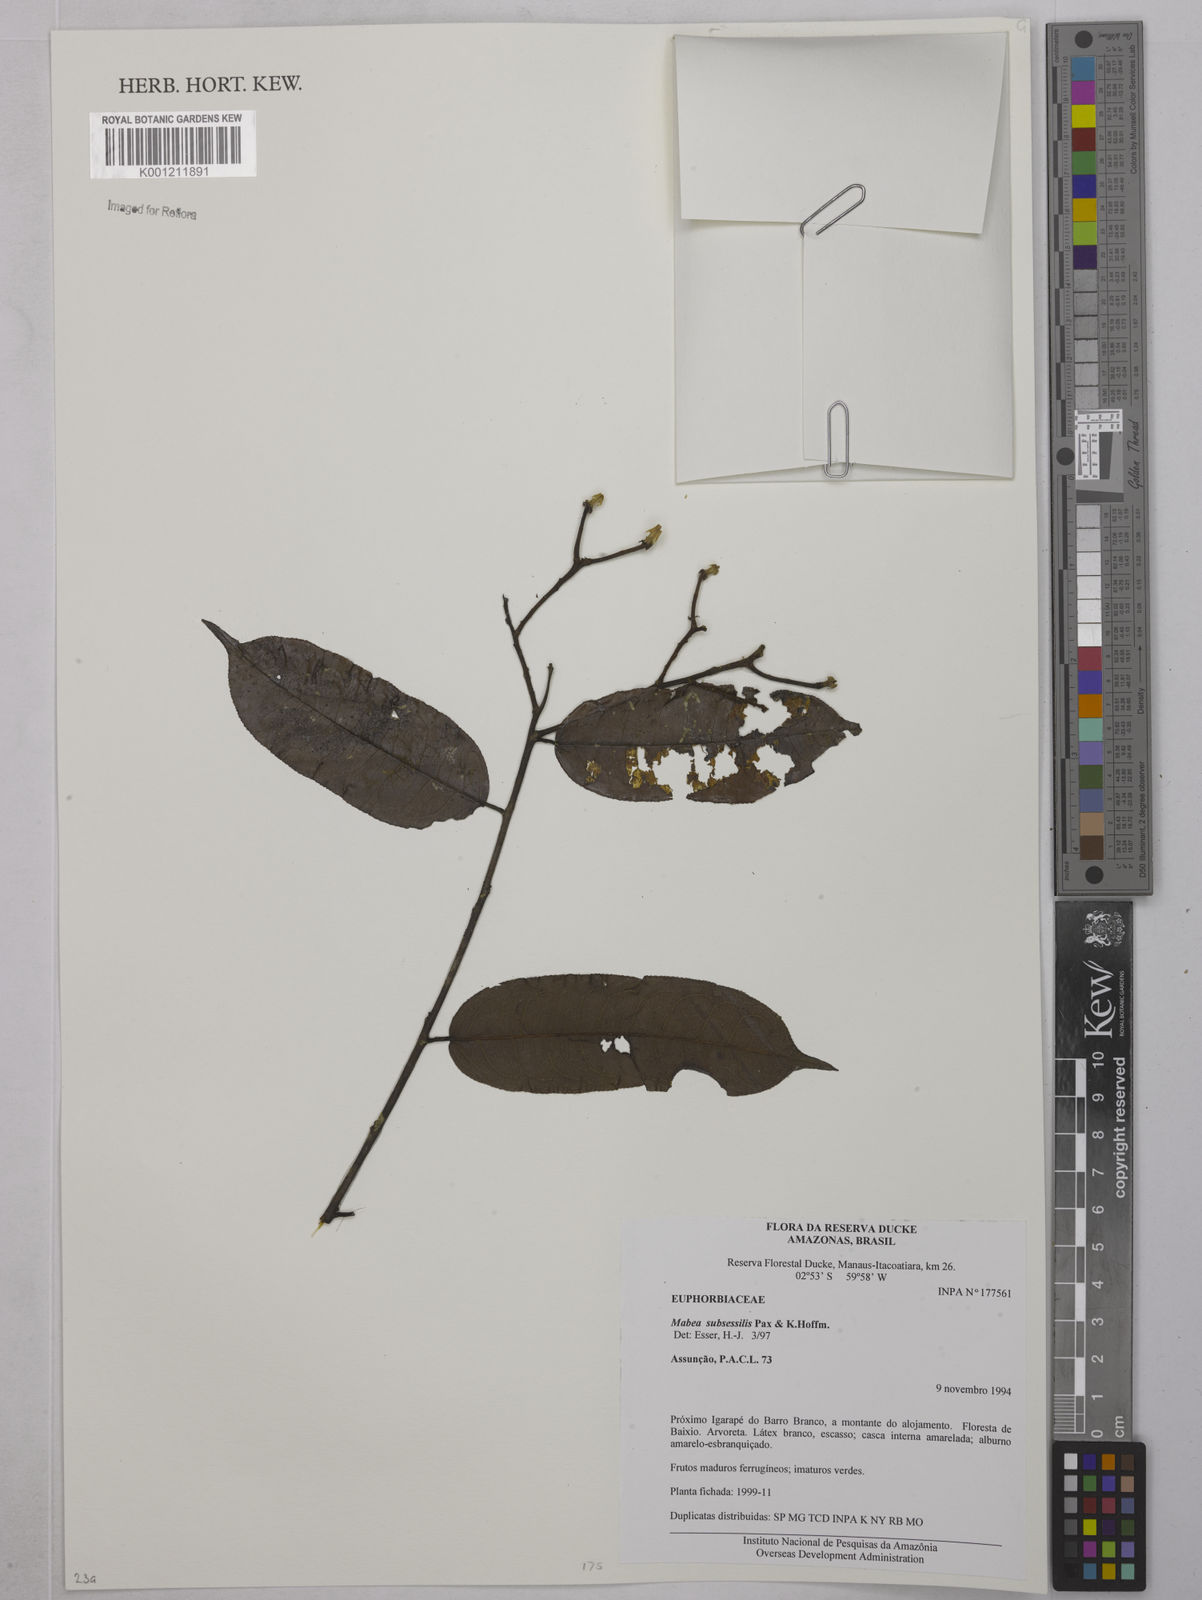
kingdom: Plantae
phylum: Tracheophyta
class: Magnoliopsida
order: Malpighiales
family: Euphorbiaceae
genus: Mabea
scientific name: Mabea subsessilis
